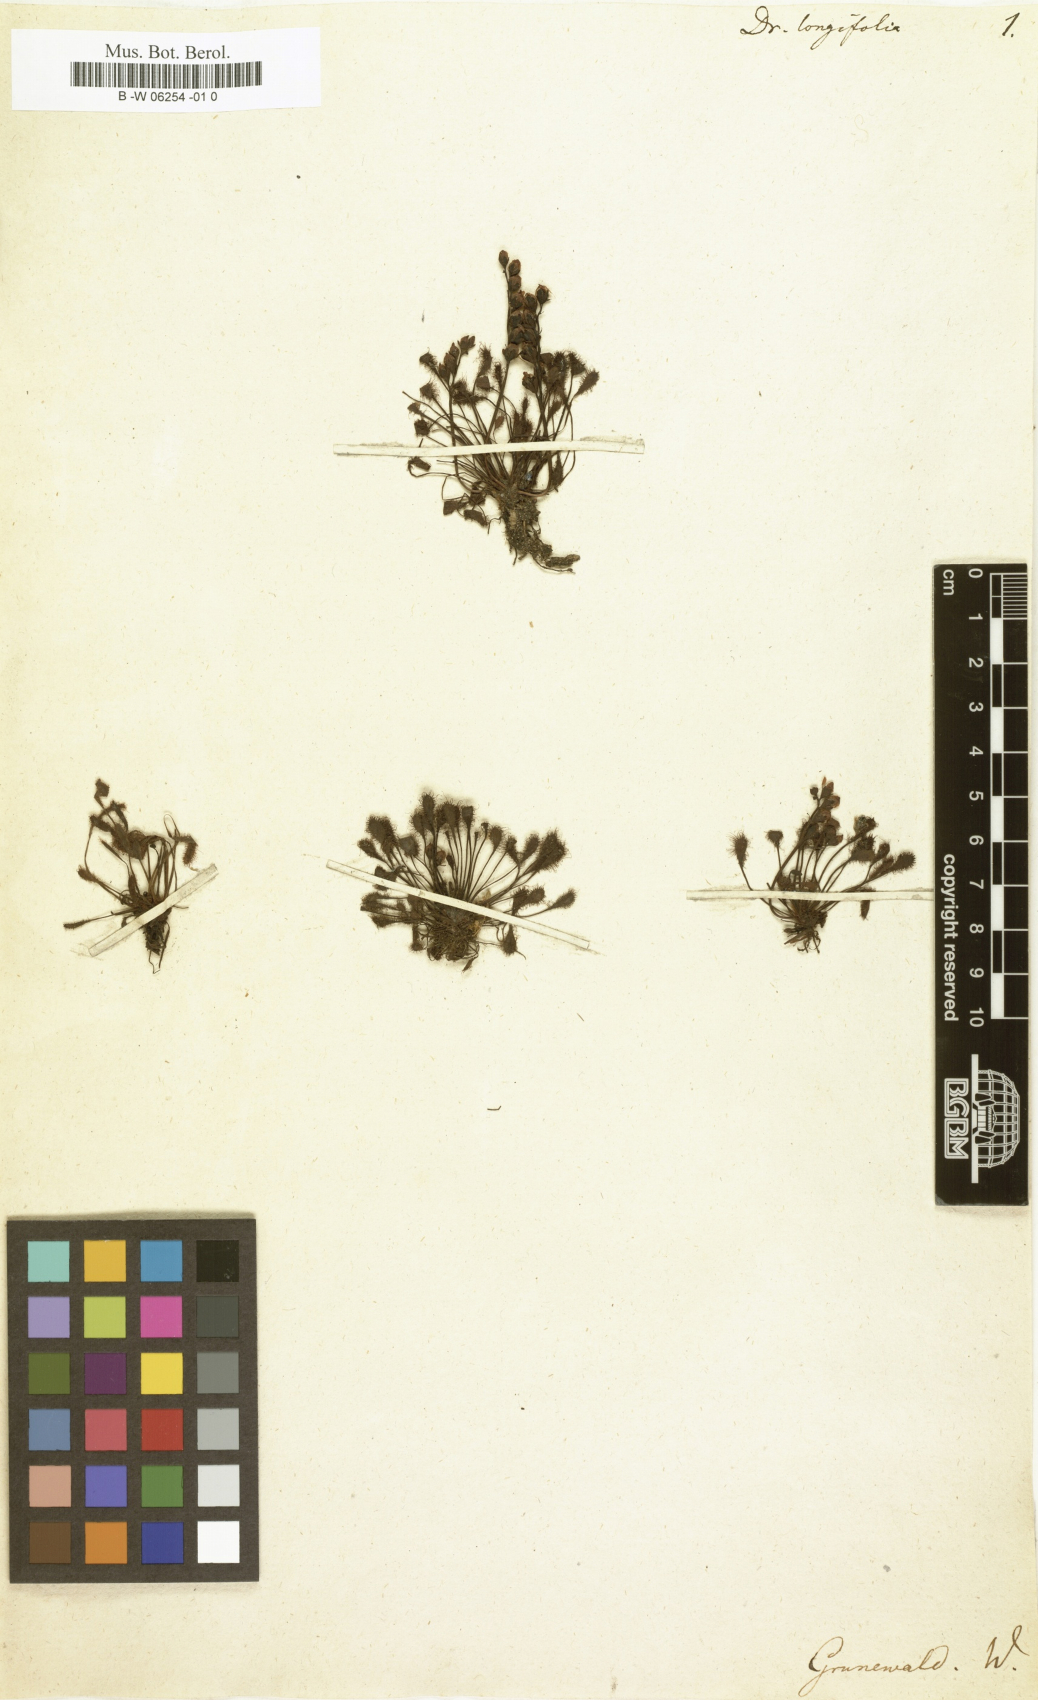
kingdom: Plantae
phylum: Tracheophyta
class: Magnoliopsida
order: Caryophyllales
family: Droseraceae
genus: Drosera
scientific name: Drosera longifolia
